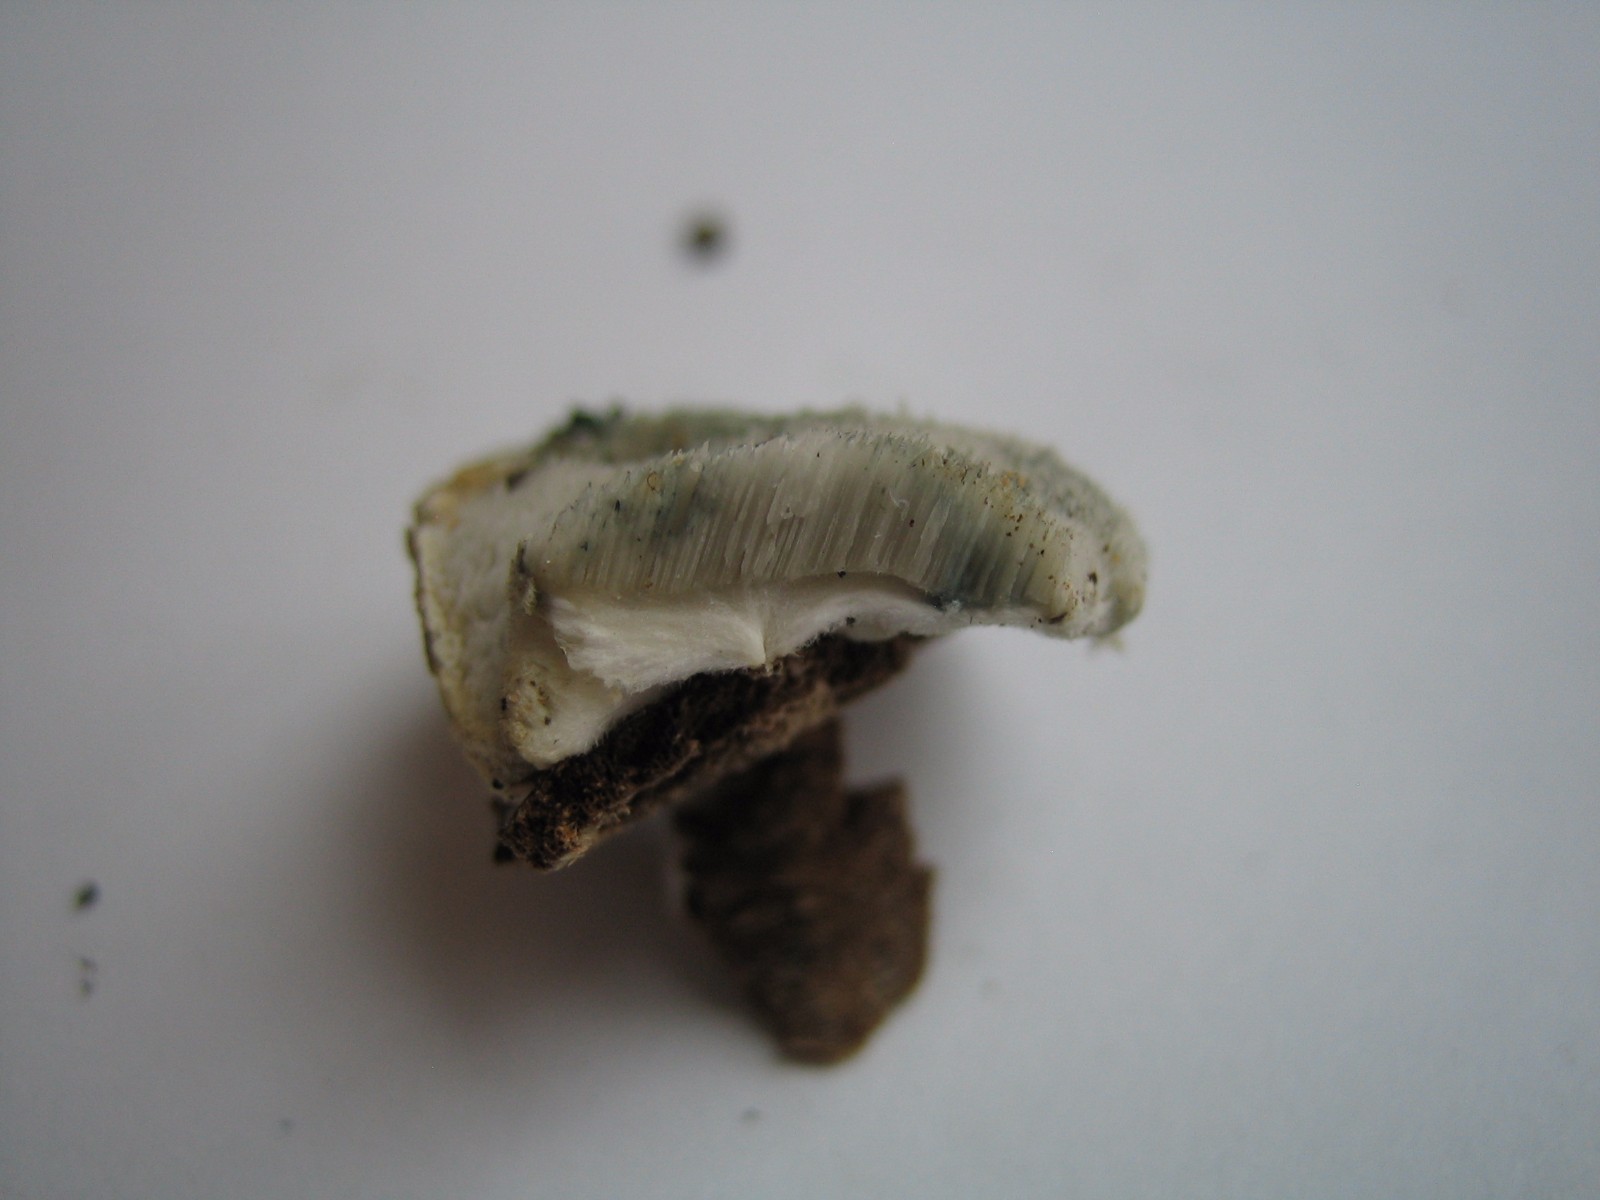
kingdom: Fungi
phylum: Basidiomycota
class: Agaricomycetes
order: Polyporales
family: Dacryobolaceae
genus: Postia
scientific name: Postia
